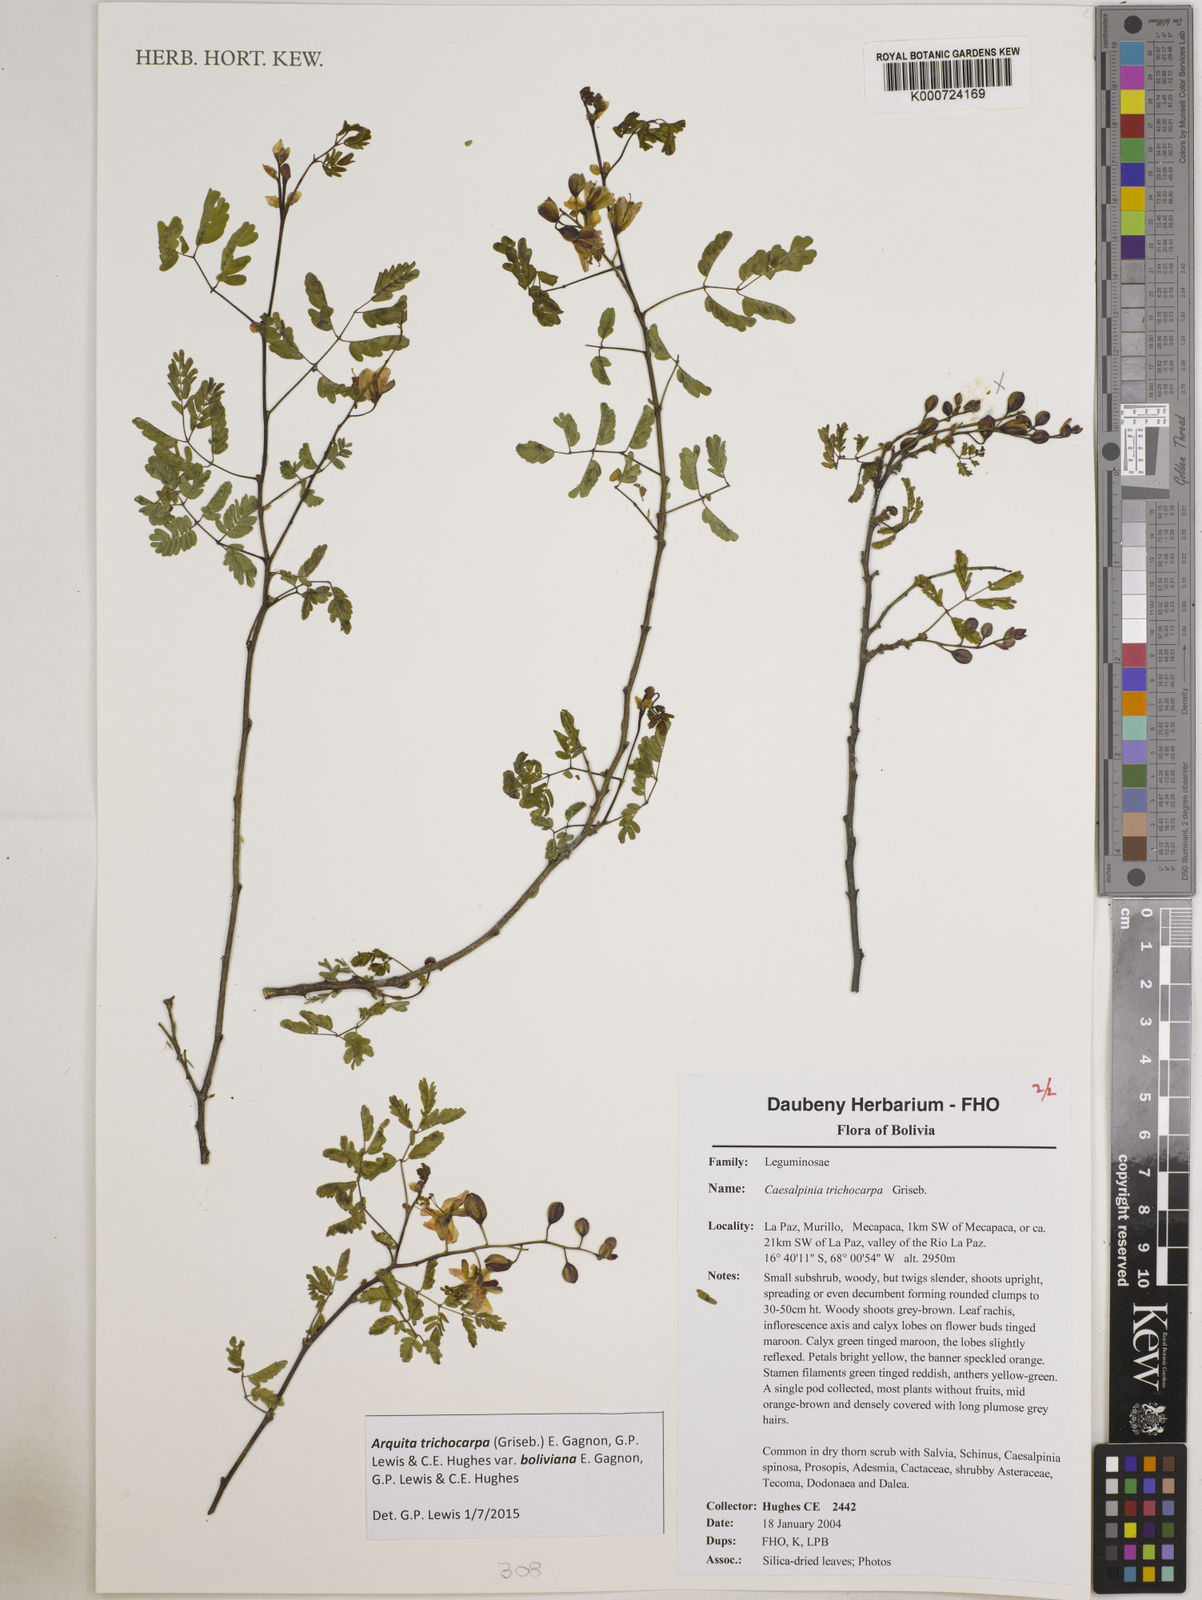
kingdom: Plantae
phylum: Tracheophyta
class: Magnoliopsida
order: Fabales
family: Fabaceae
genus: Arquita
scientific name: Arquita trichocarpa
